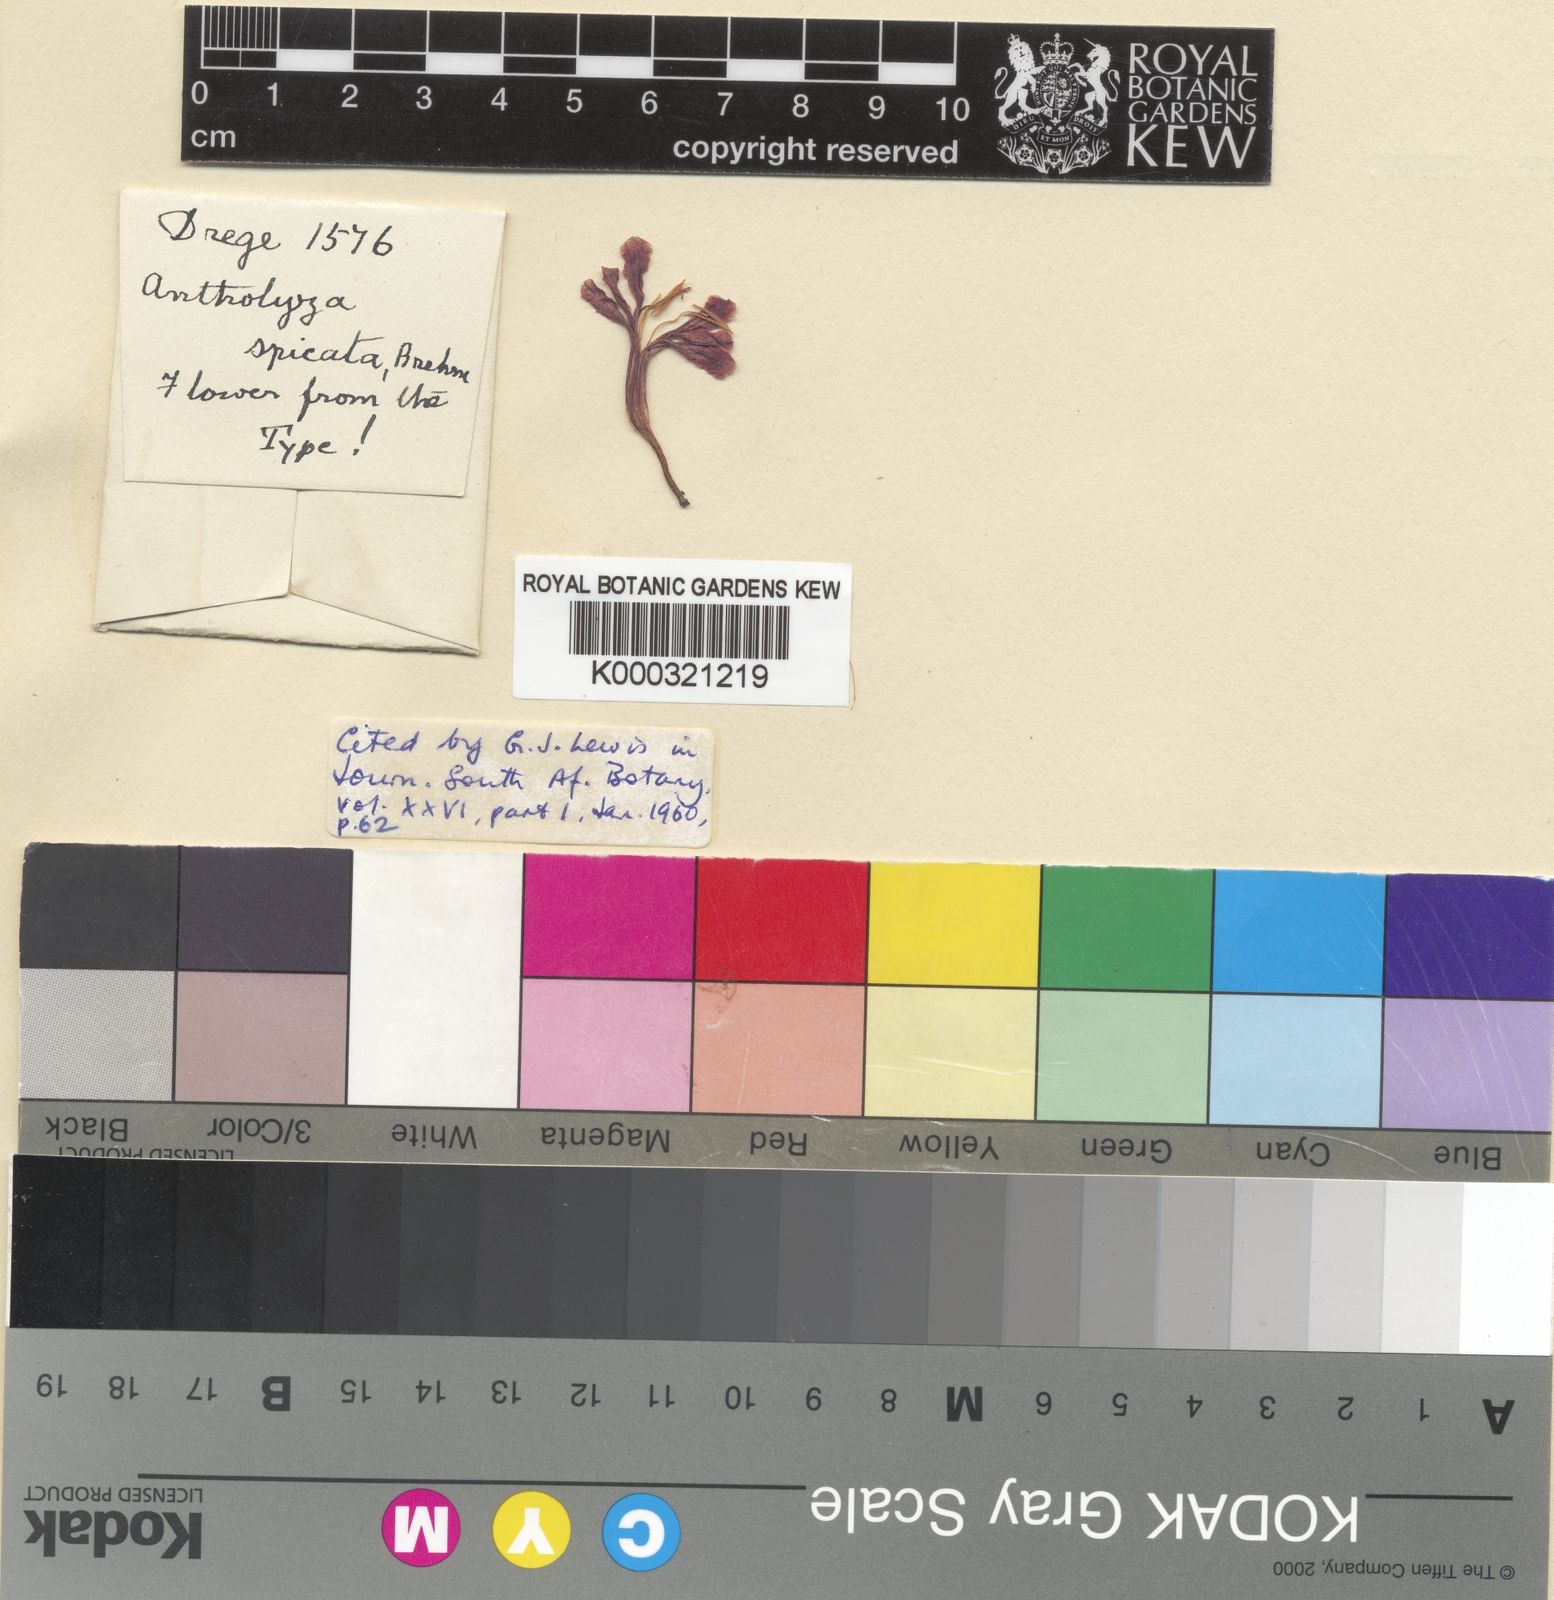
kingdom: Plantae
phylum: Tracheophyta
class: Liliopsida
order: Asparagales
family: Iridaceae
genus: Tritoniopsis
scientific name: Tritoniopsis antholyza
